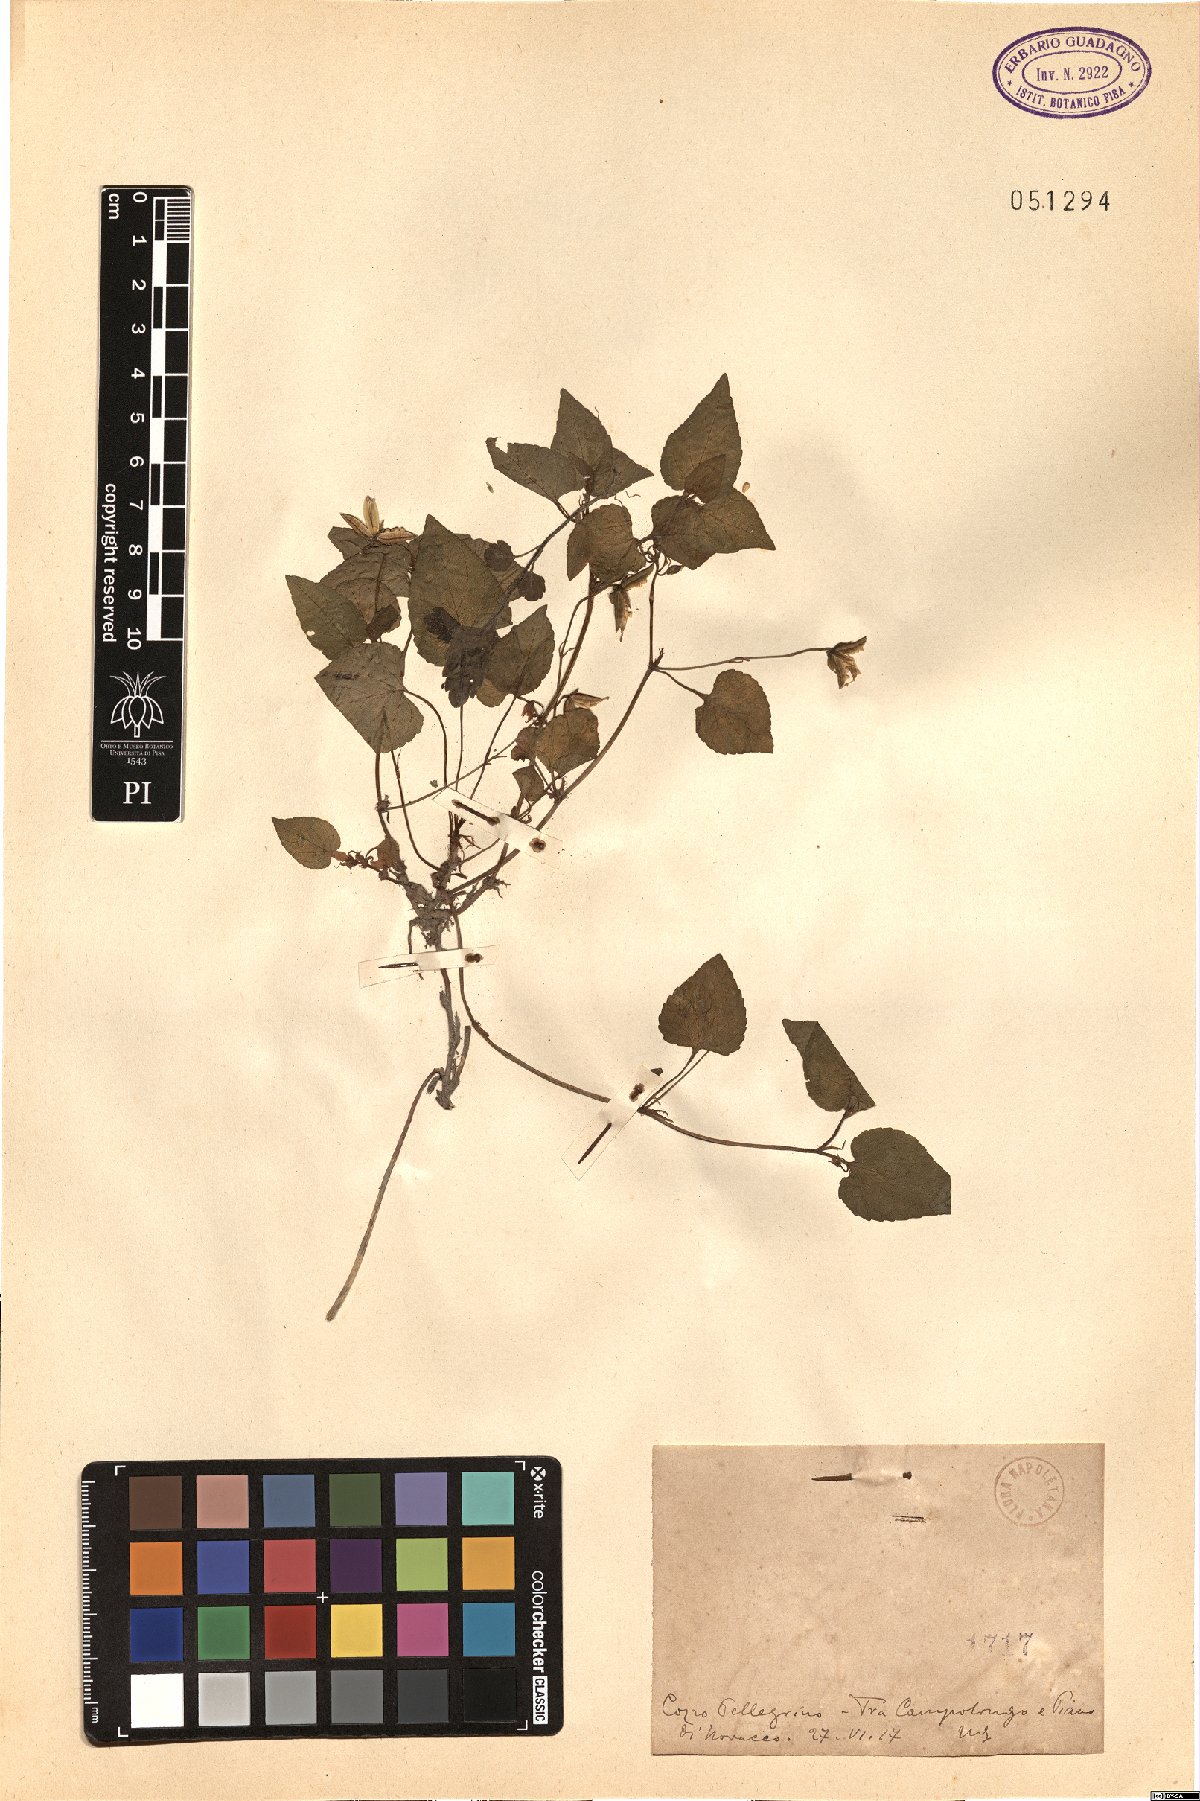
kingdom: Plantae
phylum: Tracheophyta
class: Magnoliopsida
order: Malpighiales
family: Violaceae
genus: Viola
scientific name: Viola
